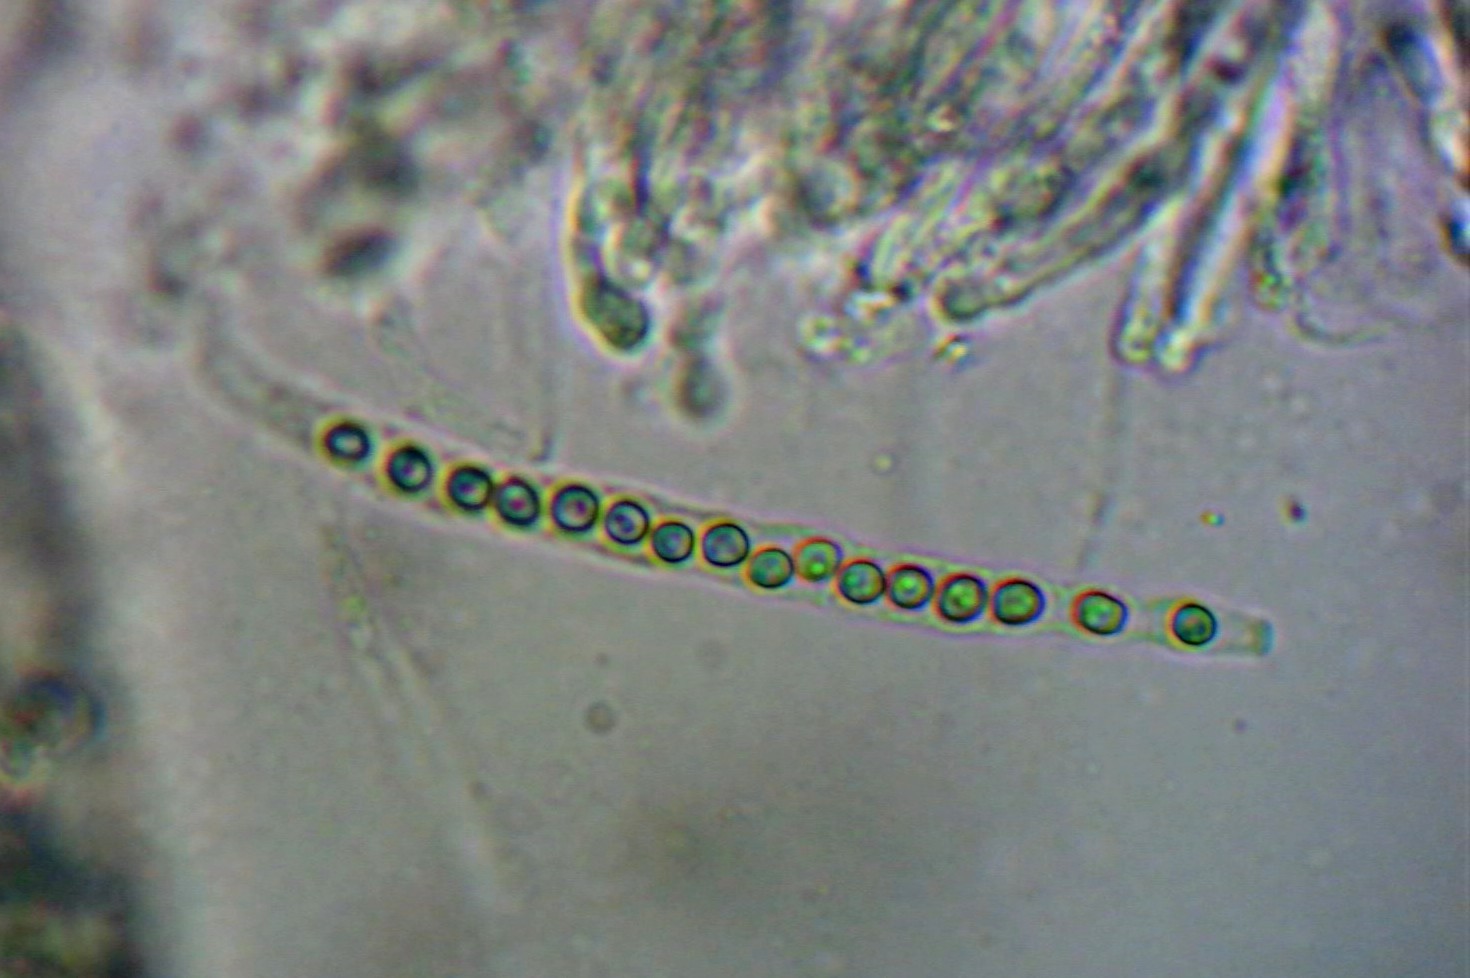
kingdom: Fungi
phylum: Ascomycota
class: Sordariomycetes
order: Hypocreales
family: Hypocreaceae
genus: Trichoderma
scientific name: Trichoderma aureoviride
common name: æggegul kødkerne
